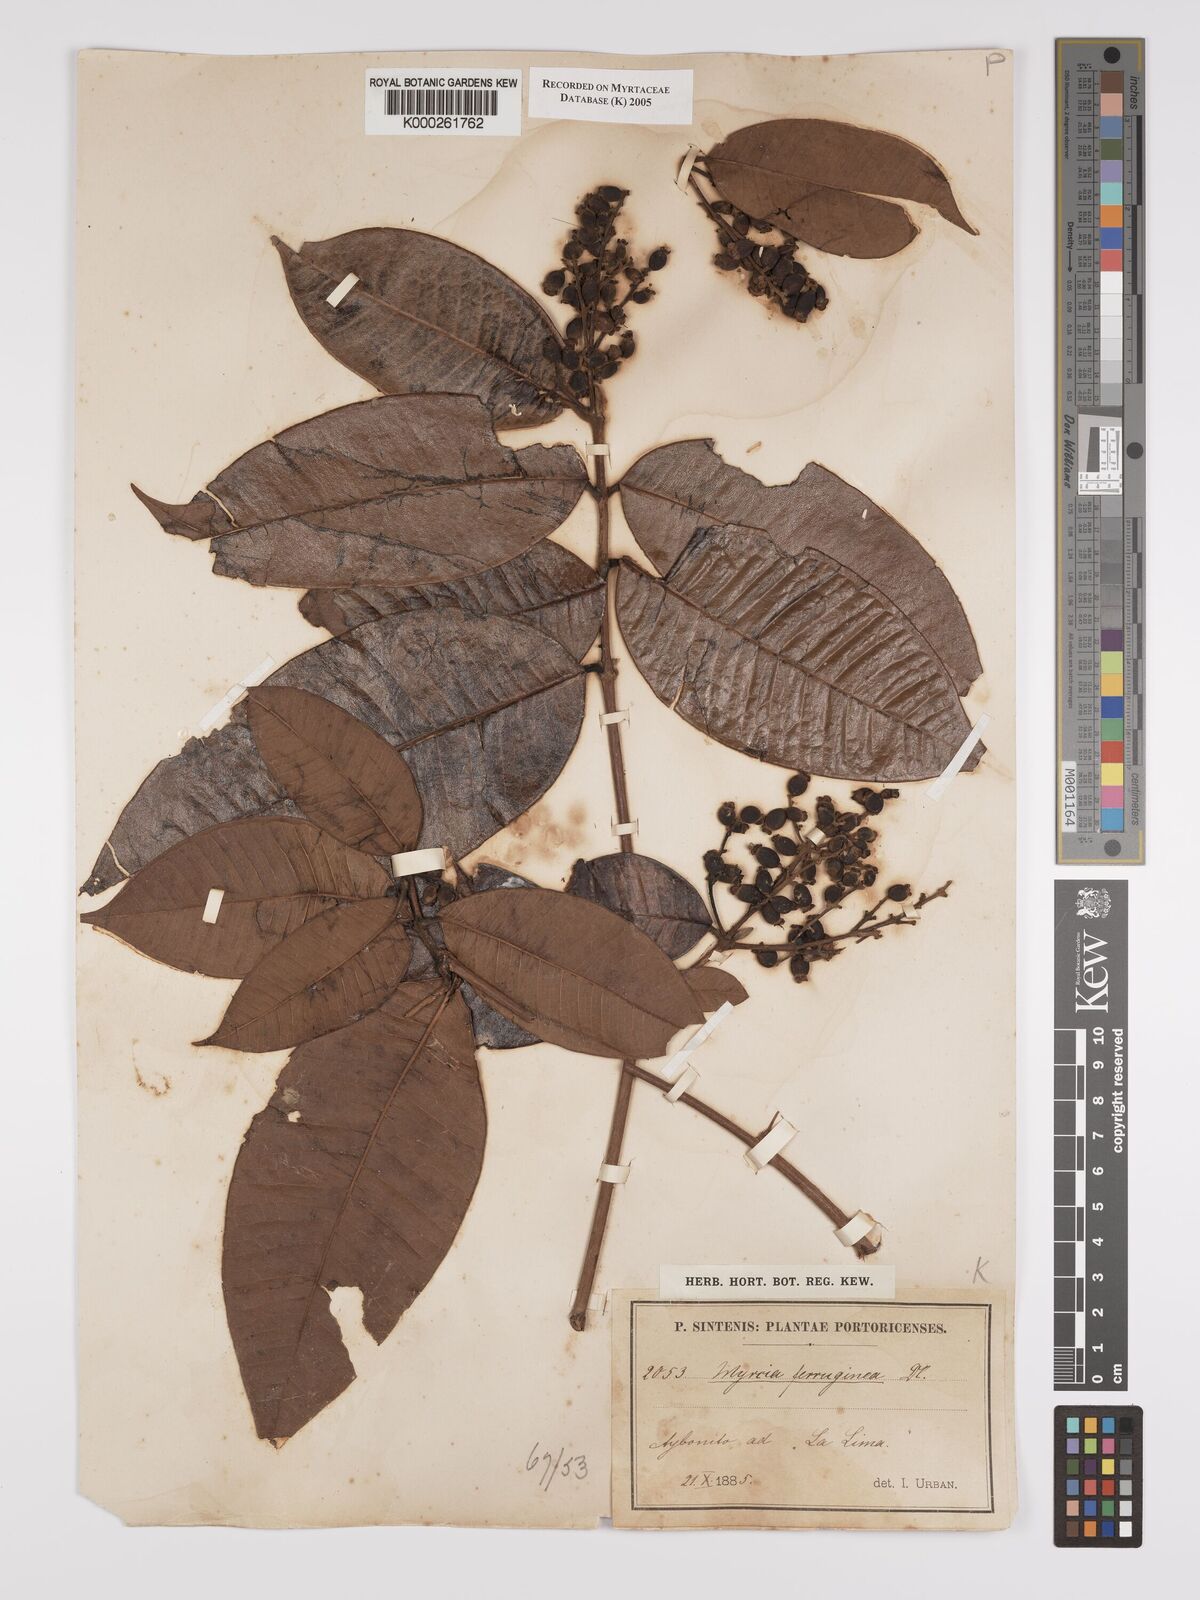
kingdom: Plantae
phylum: Tracheophyta
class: Magnoliopsida
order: Myrtales
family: Myrtaceae
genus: Myrcia
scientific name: Myrcia ferruginea
